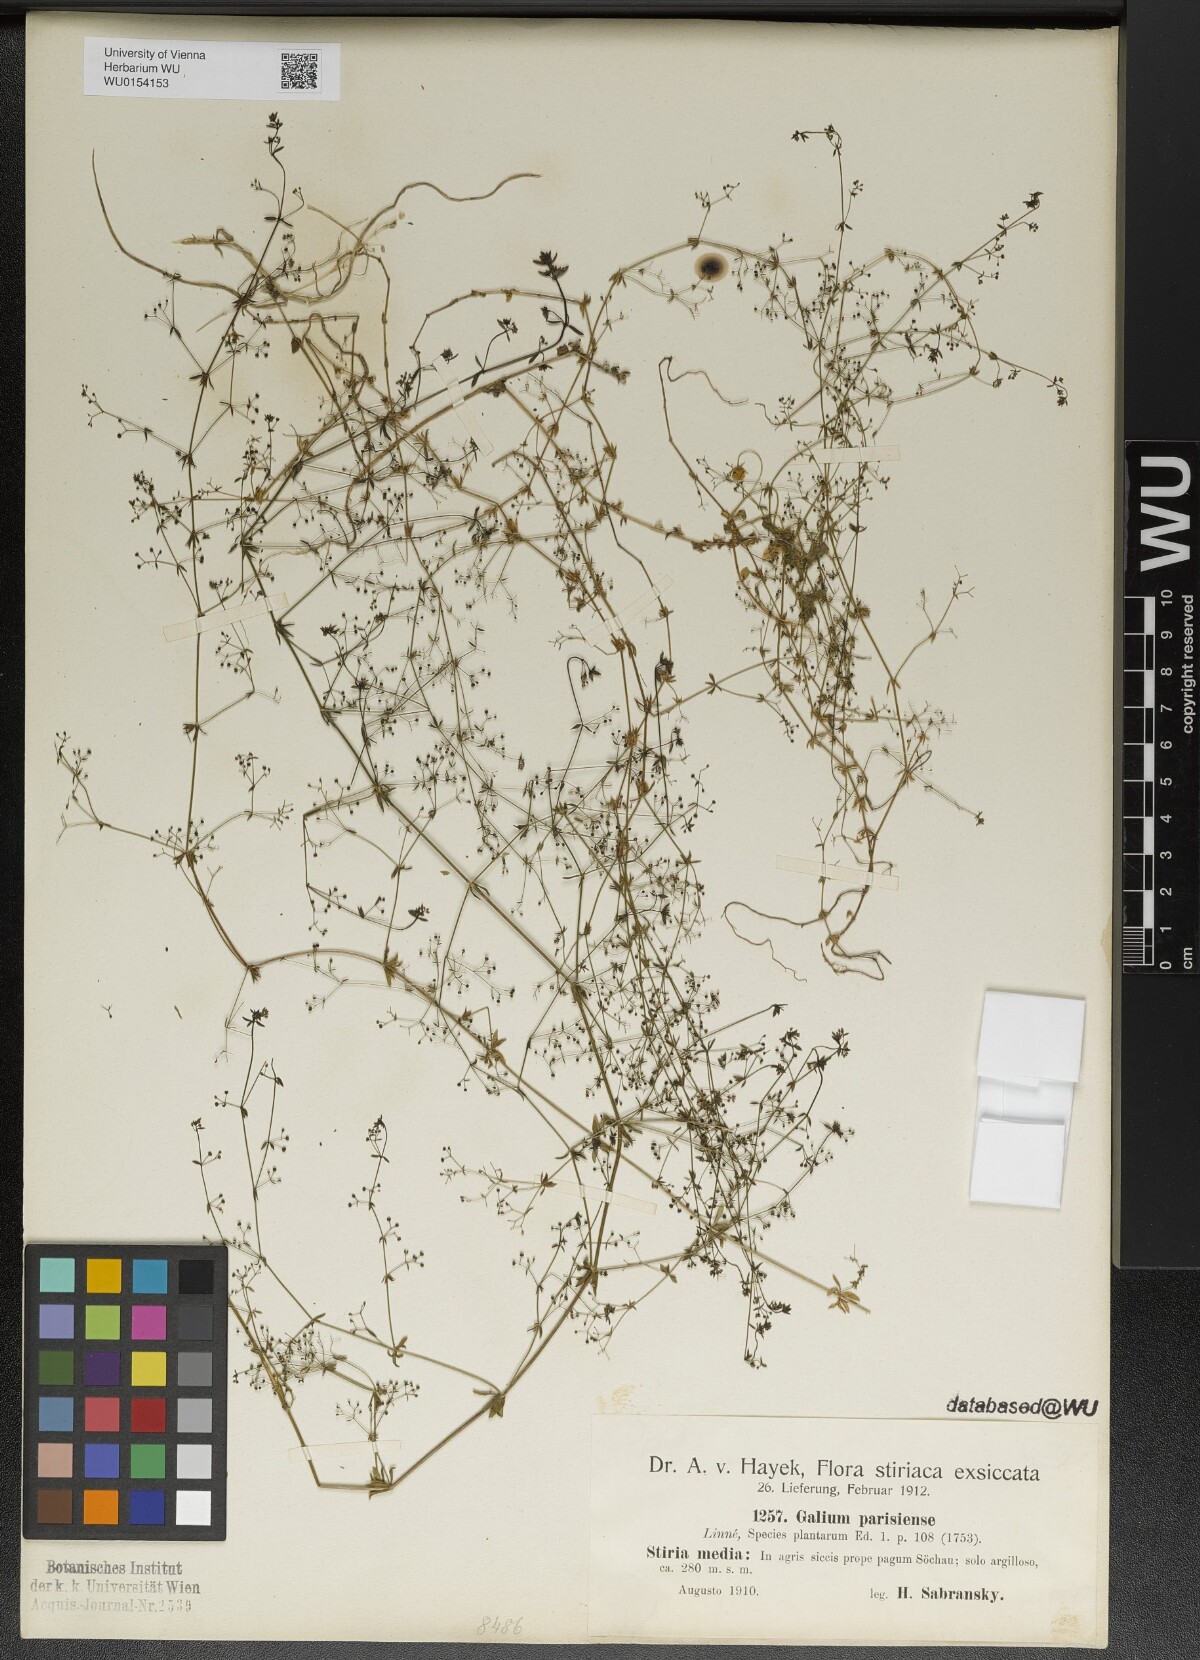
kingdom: Plantae
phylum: Tracheophyta
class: Magnoliopsida
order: Gentianales
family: Rubiaceae
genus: Galium
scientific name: Galium parisiense
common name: Wall bedstraw
